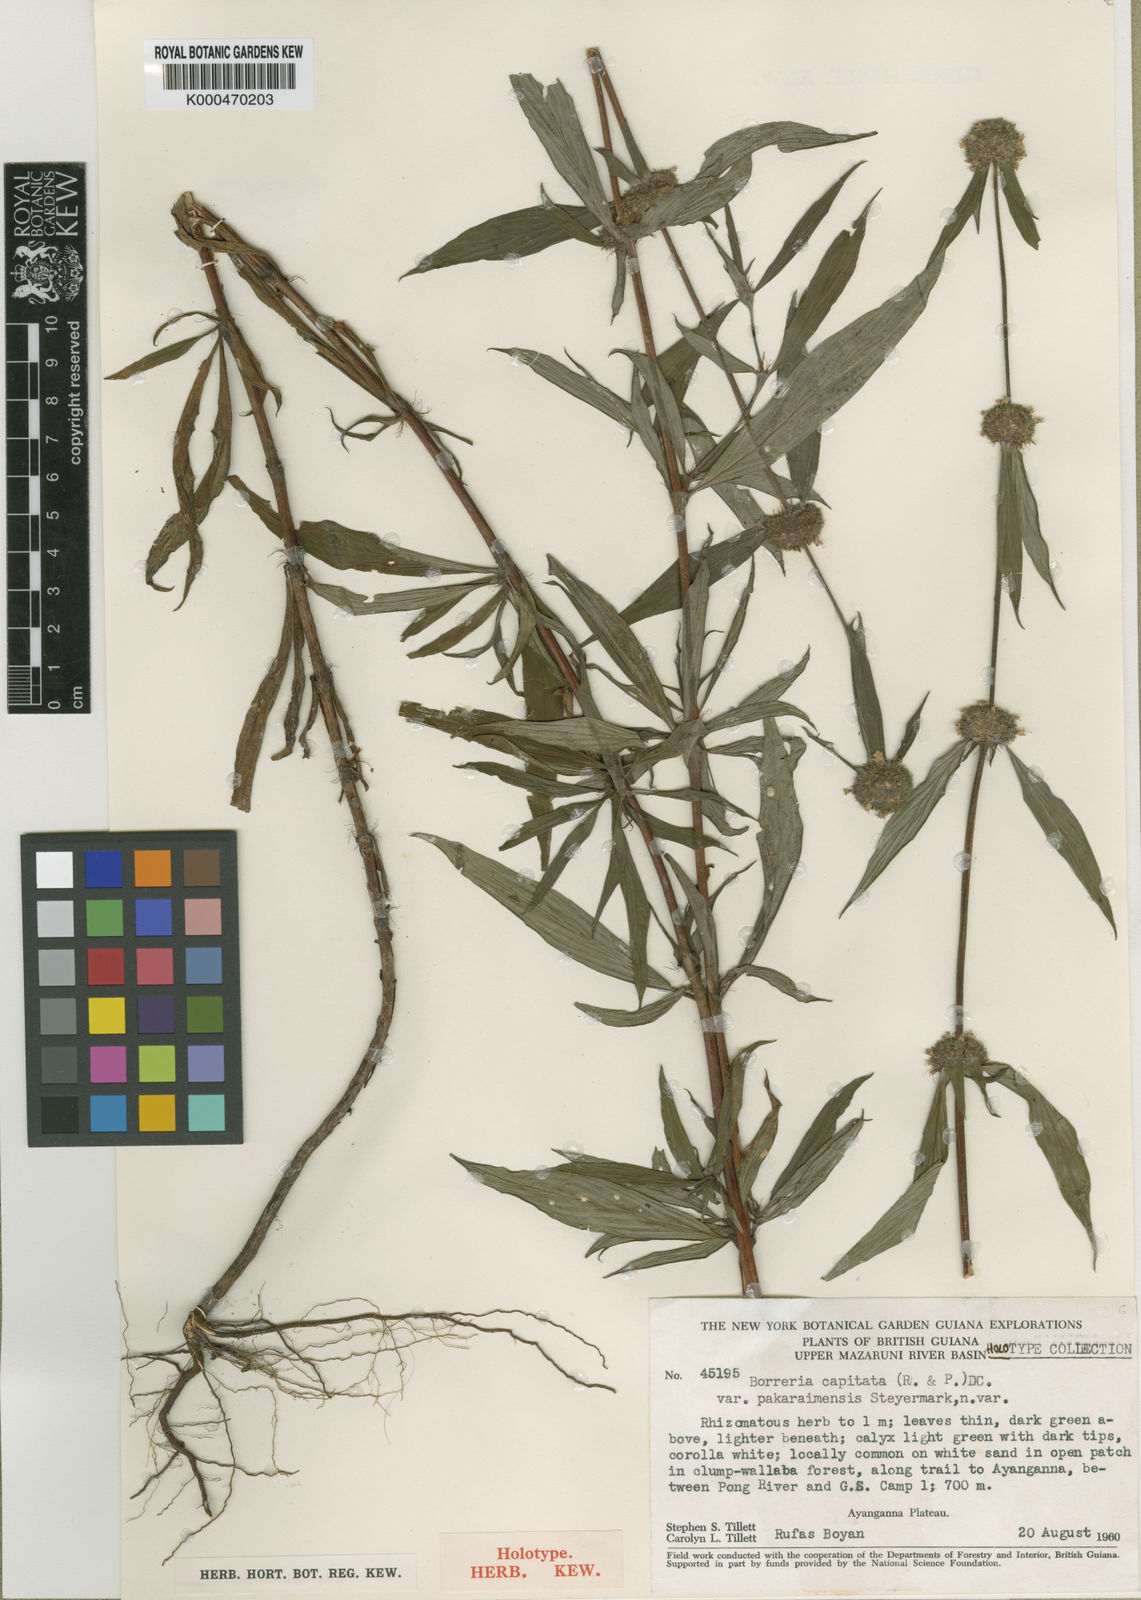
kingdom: Plantae
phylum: Tracheophyta
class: Magnoliopsida
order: Gentianales
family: Rubiaceae
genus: Spermacoce
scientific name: Spermacoce
